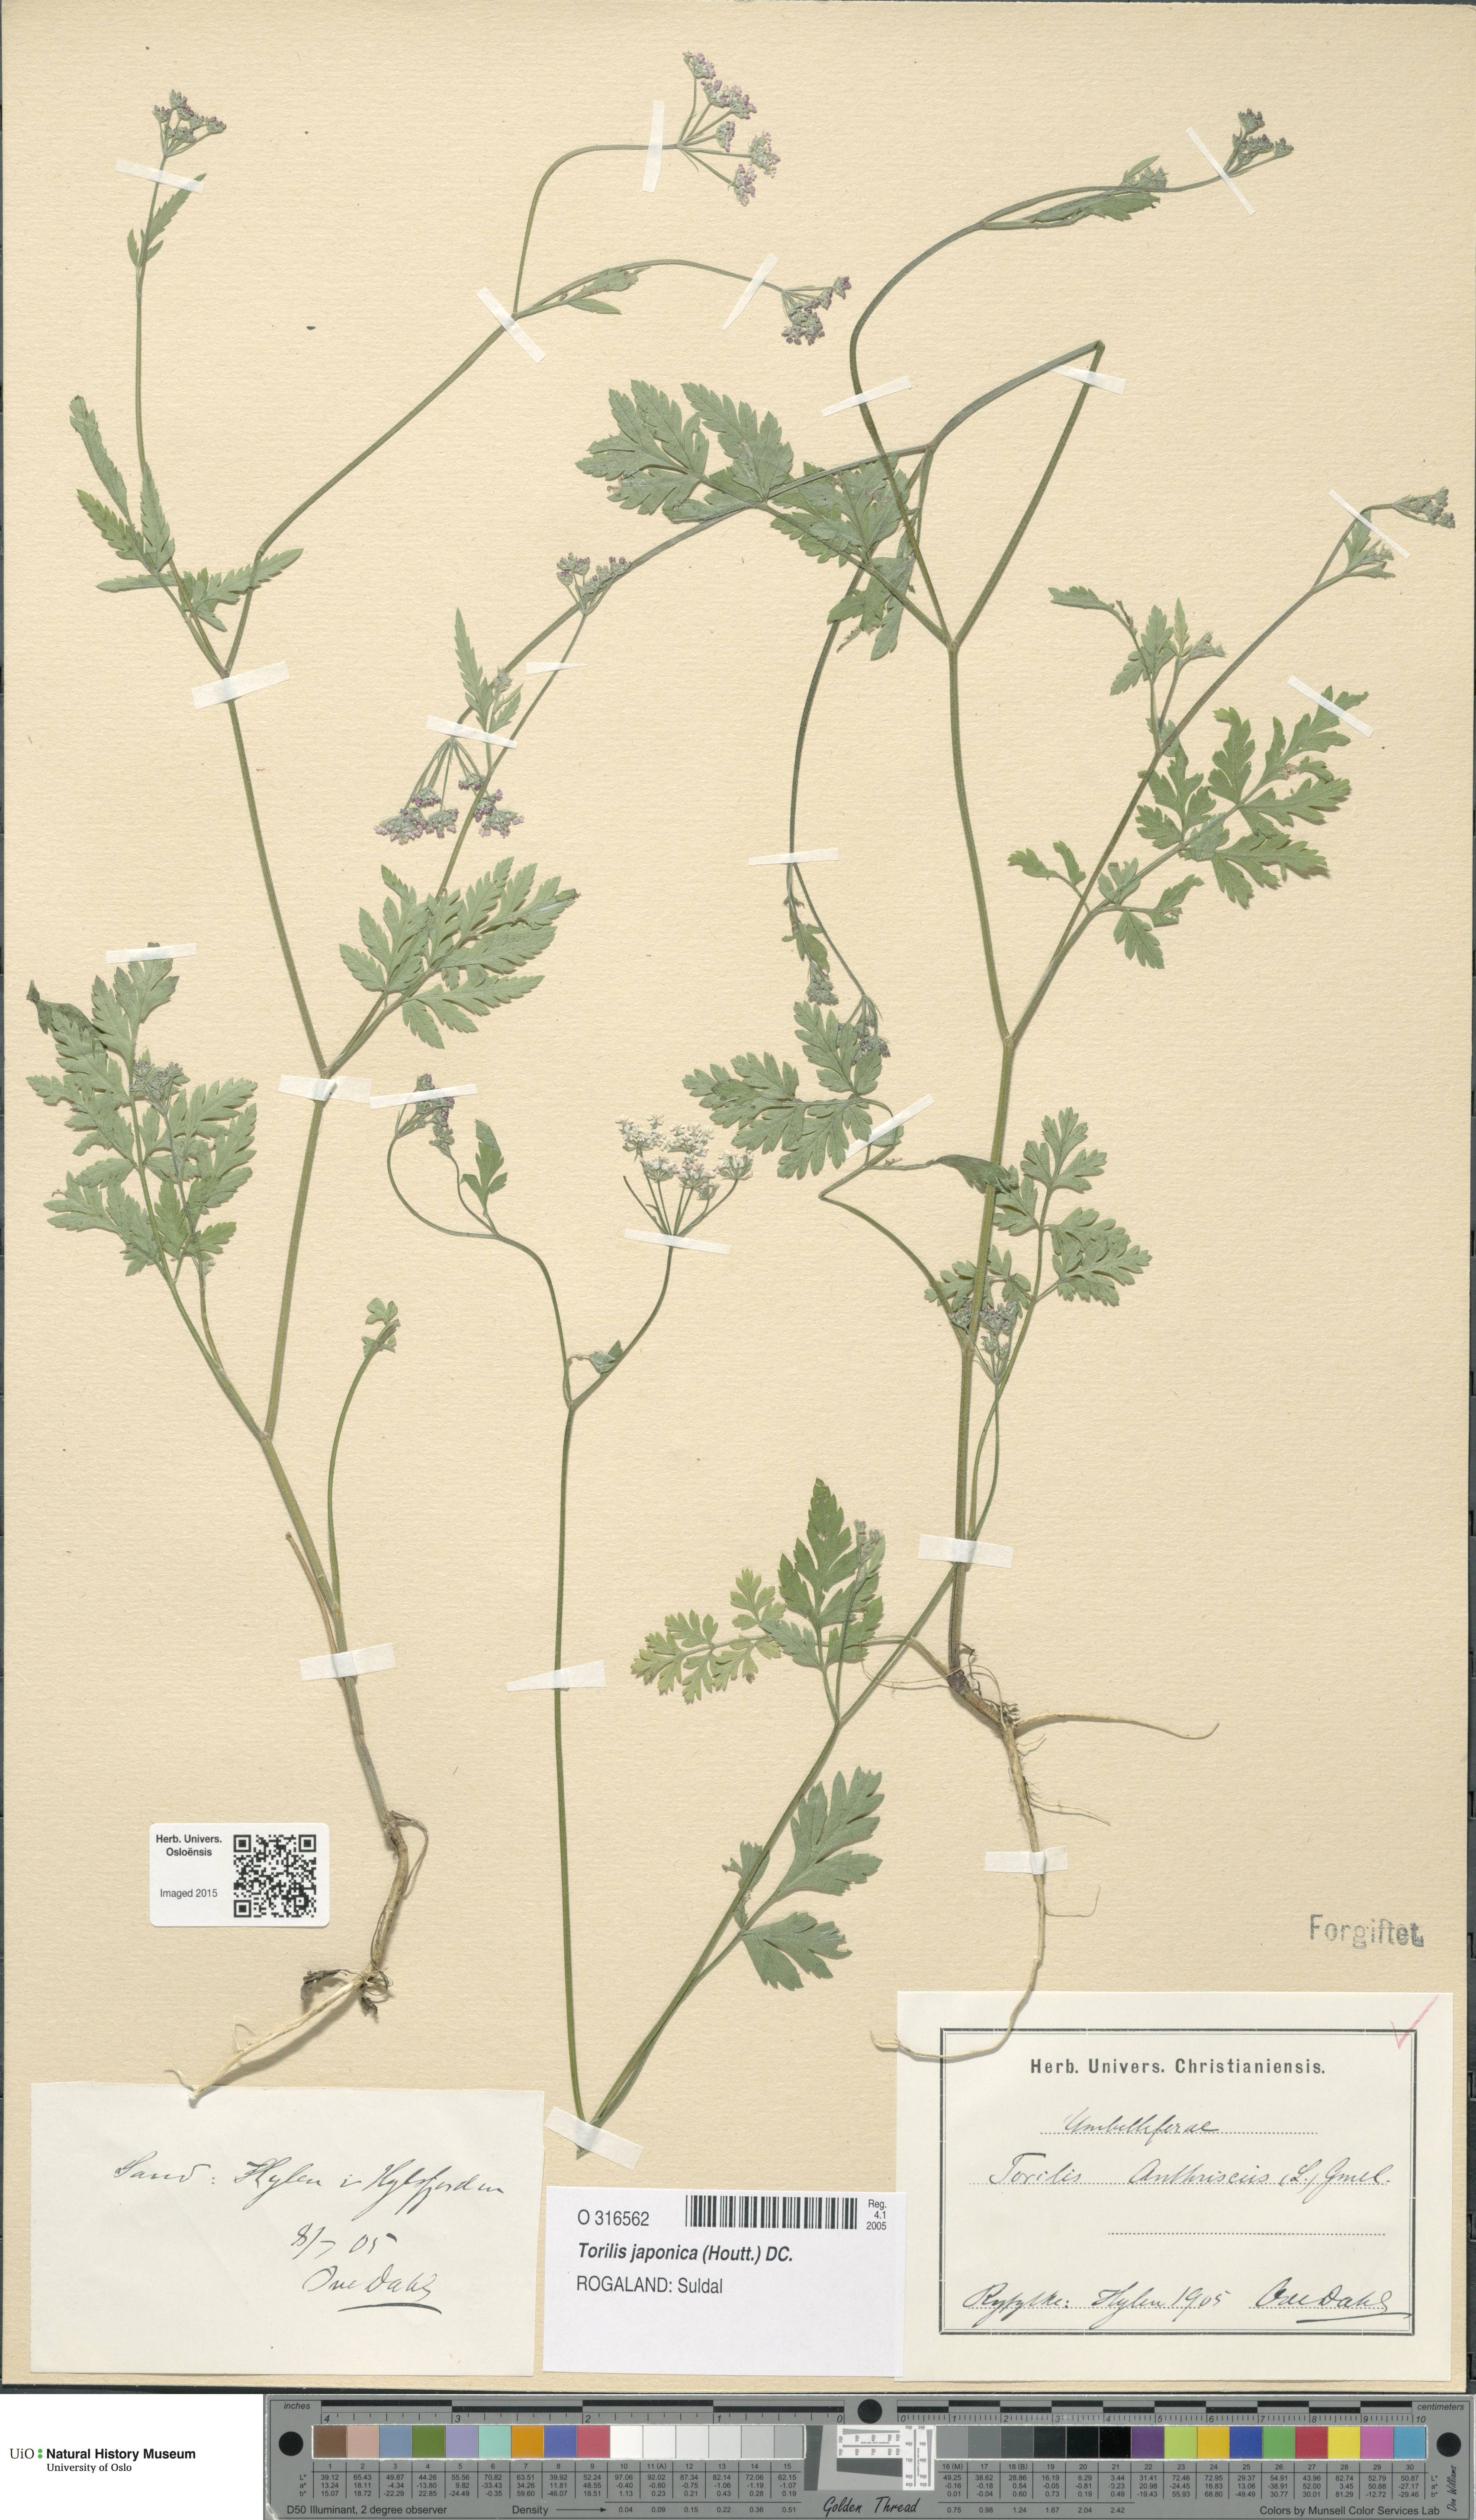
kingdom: Plantae
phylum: Tracheophyta
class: Magnoliopsida
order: Apiales
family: Apiaceae
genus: Torilis
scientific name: Torilis japonica
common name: Upright hedge-parsley
